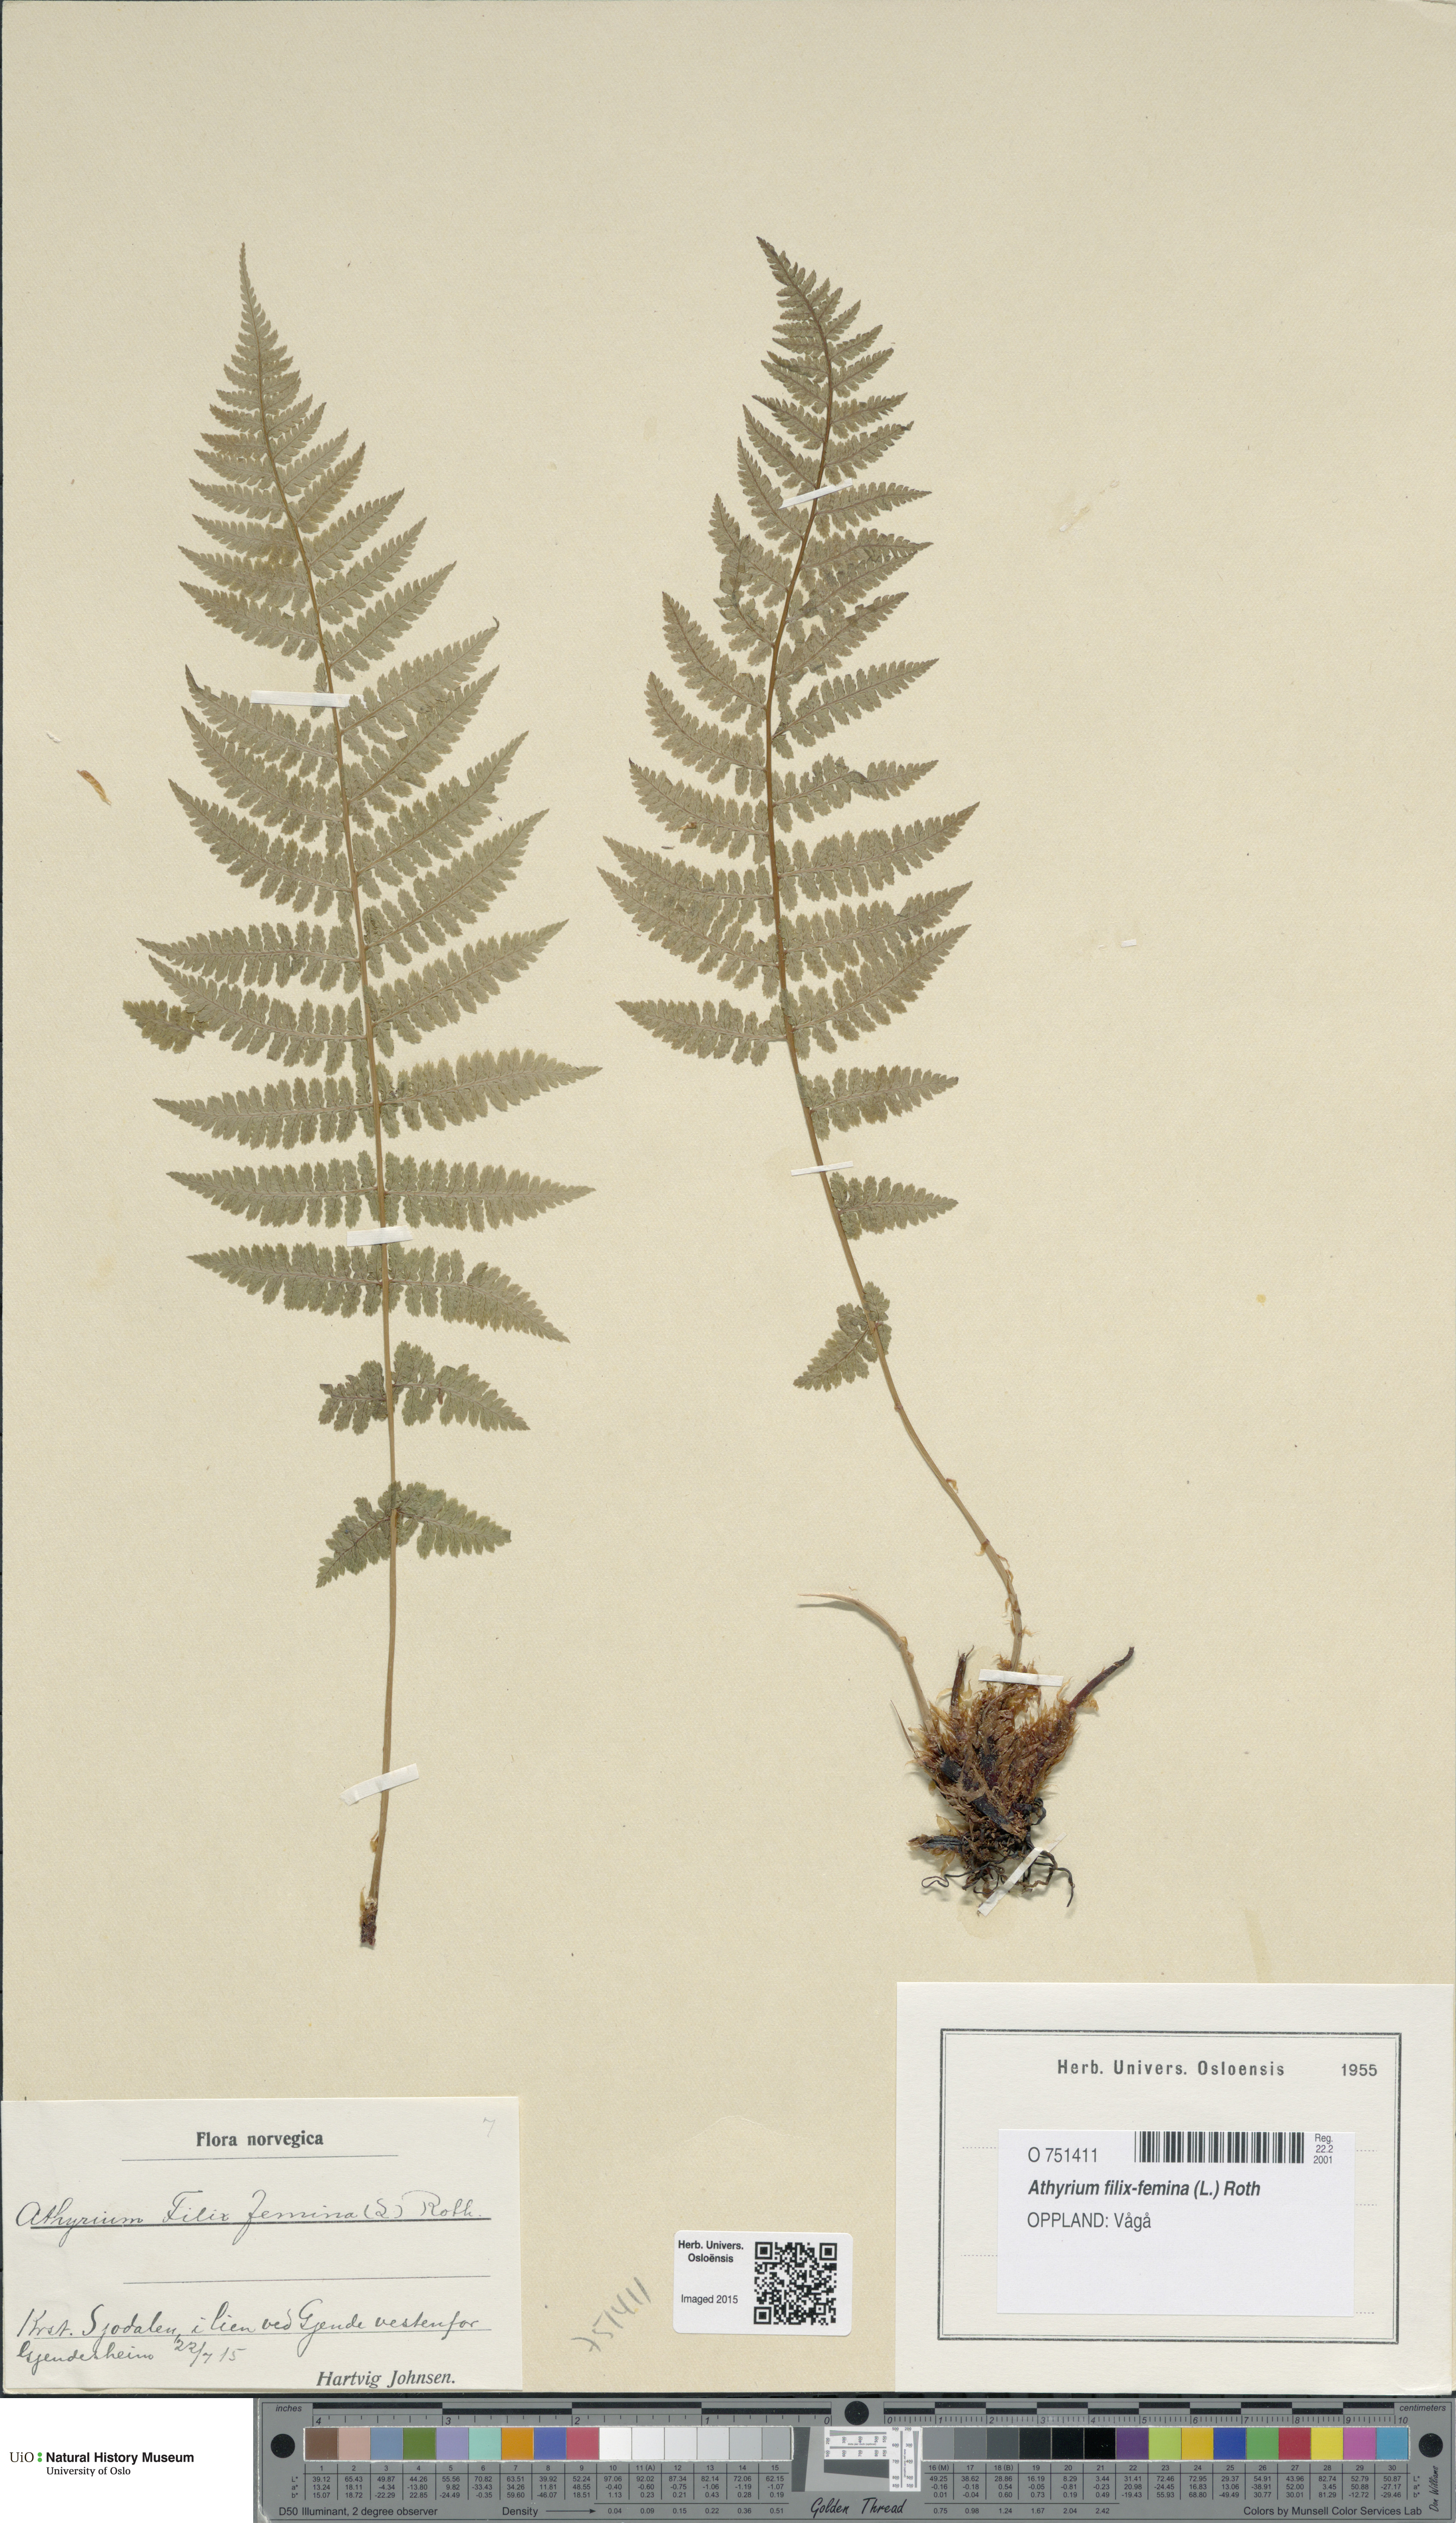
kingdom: Plantae
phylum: Tracheophyta
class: Polypodiopsida
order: Polypodiales
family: Athyriaceae
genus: Athyrium
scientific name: Athyrium filix-femina
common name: Lady fern
